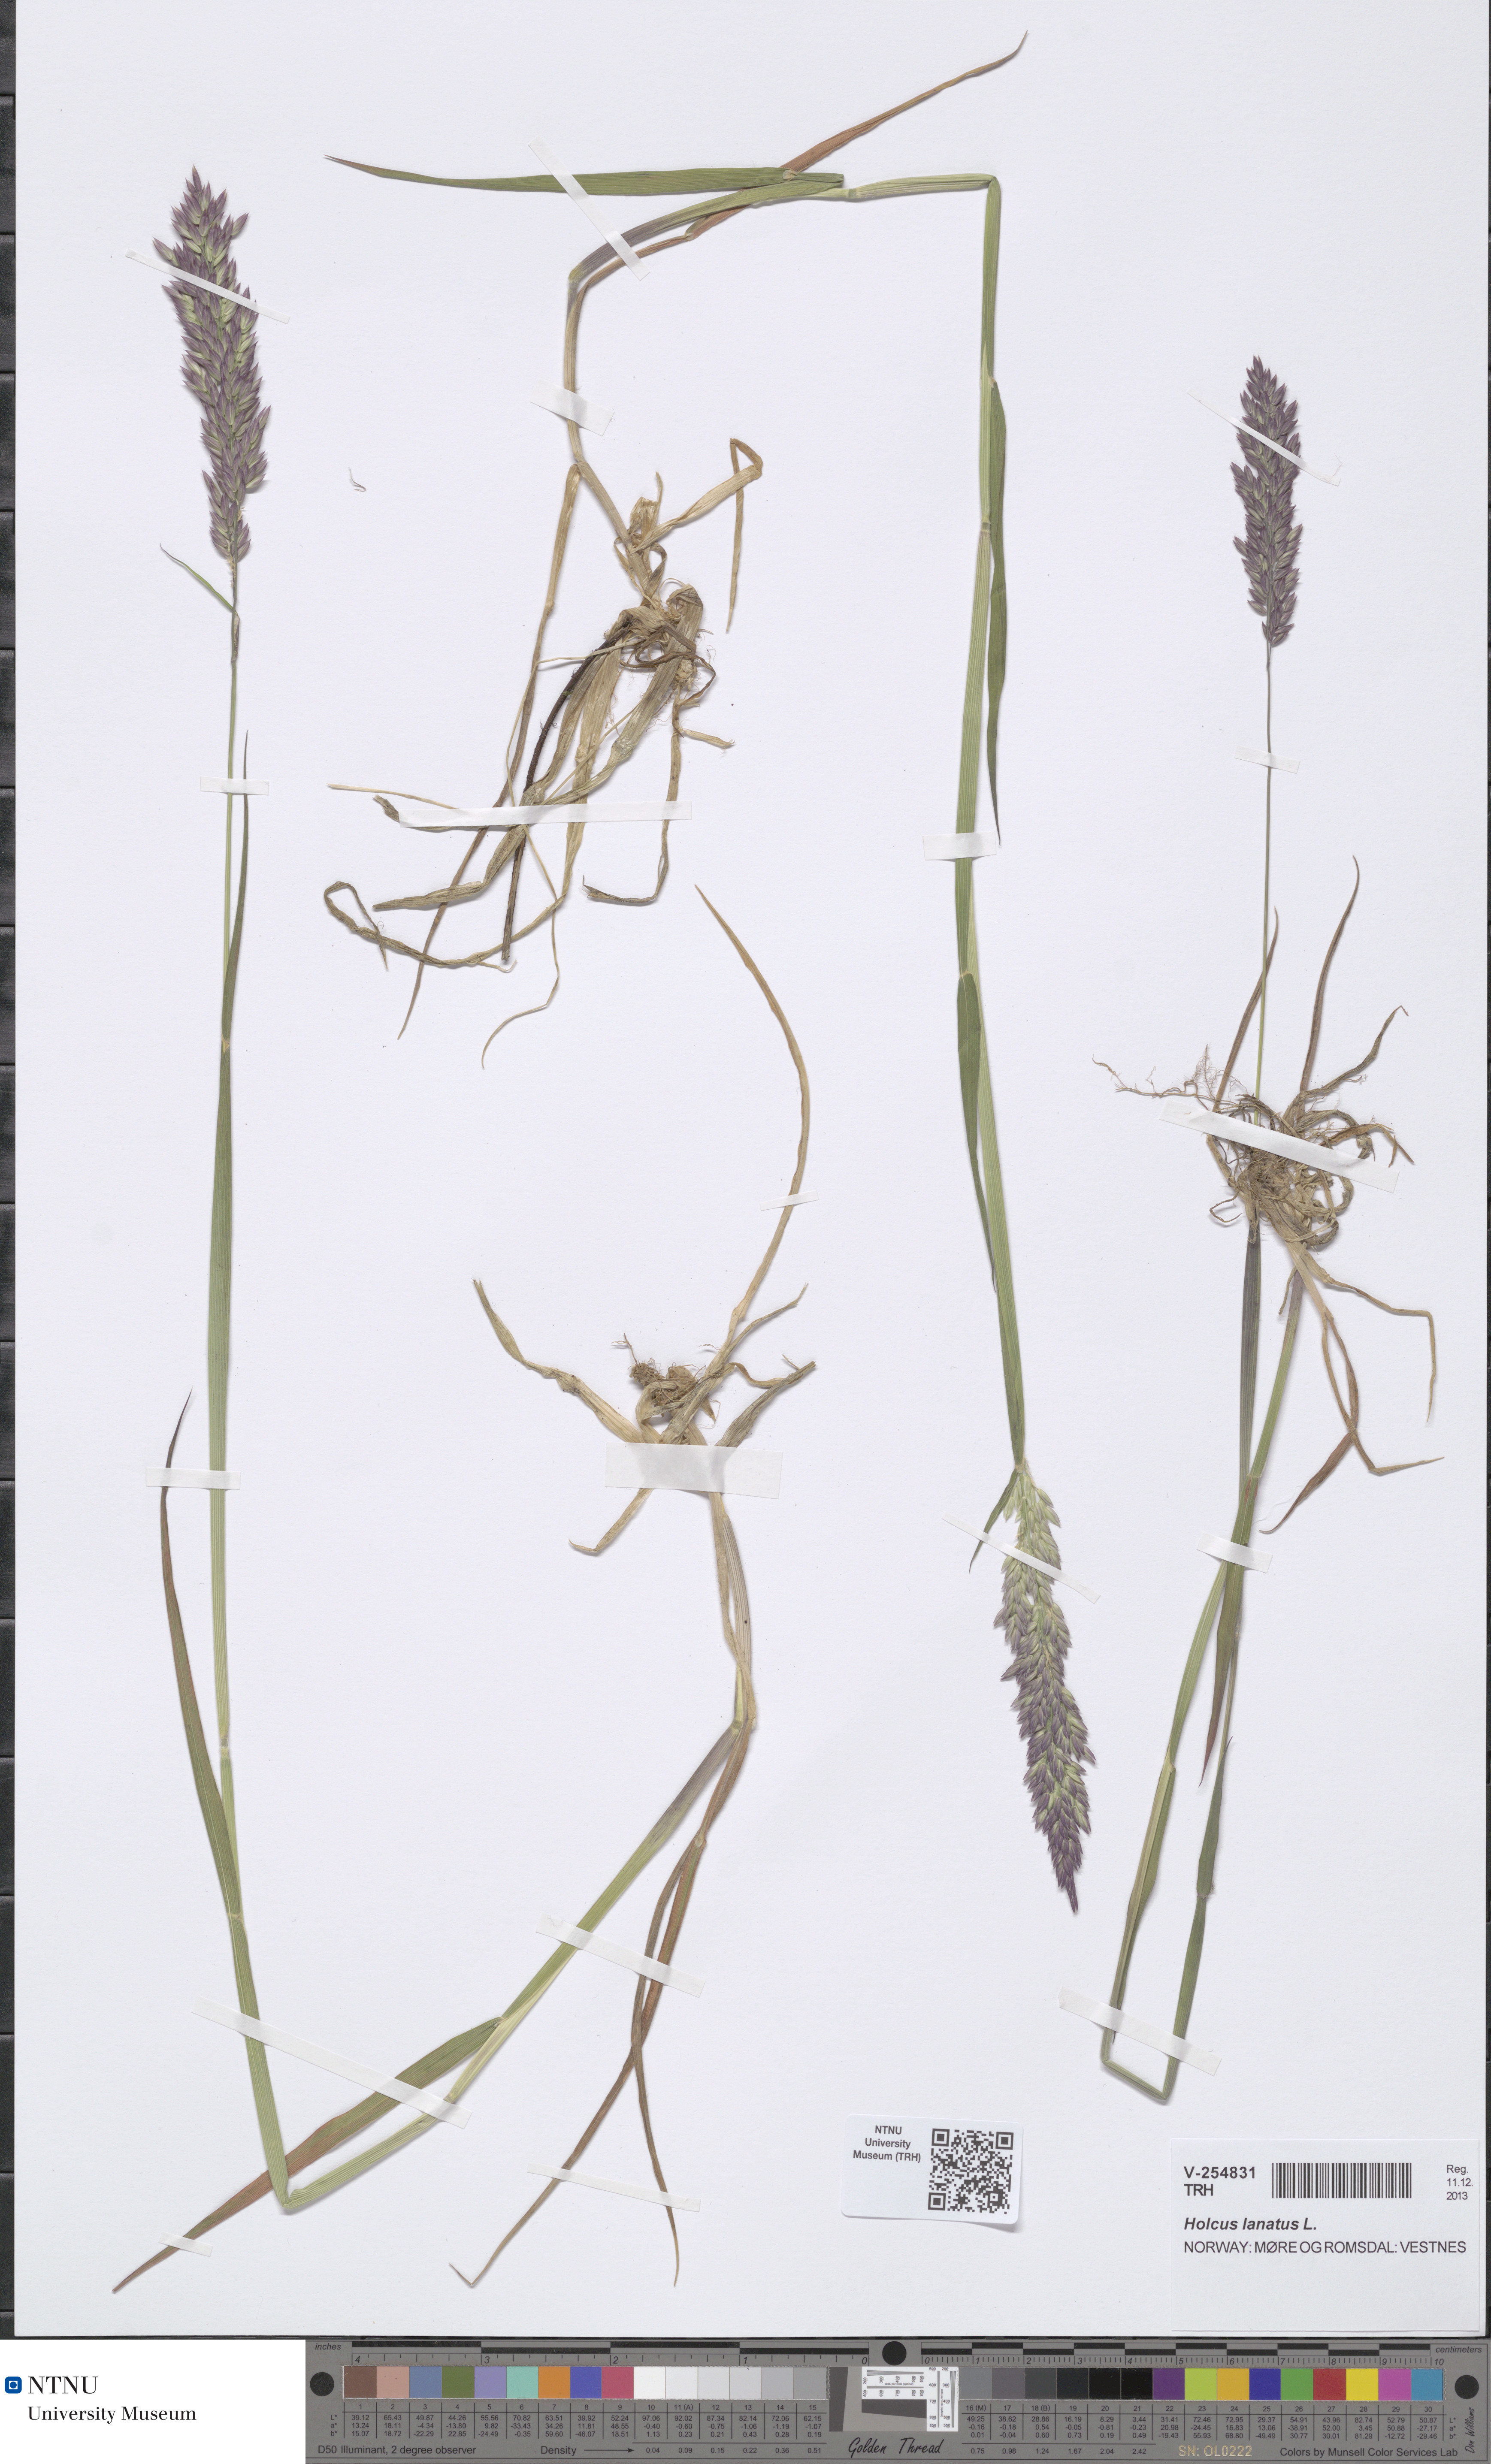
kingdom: Plantae
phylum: Tracheophyta
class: Liliopsida
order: Poales
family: Poaceae
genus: Holcus
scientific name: Holcus lanatus
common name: Yorkshire-fog
